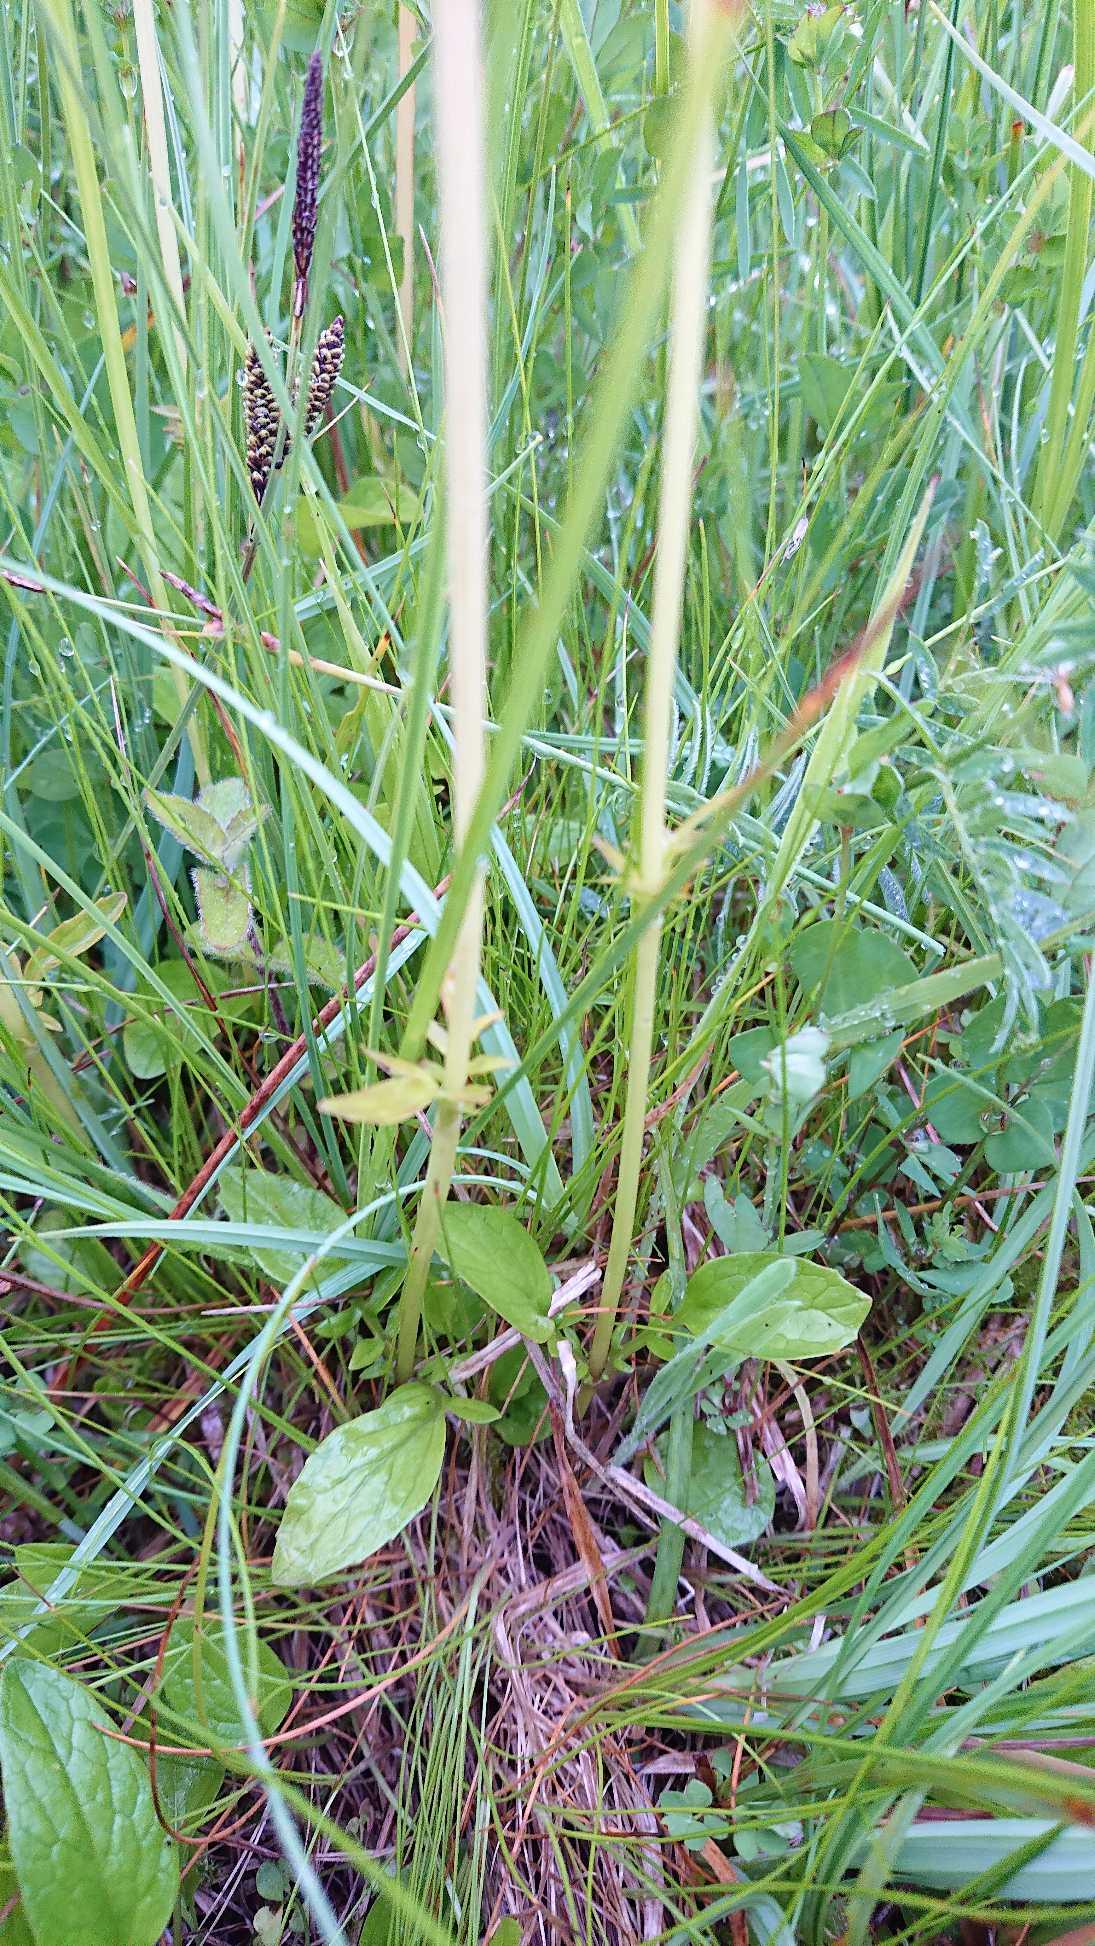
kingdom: Plantae
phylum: Tracheophyta
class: Magnoliopsida
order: Dipsacales
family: Caprifoliaceae
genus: Valeriana
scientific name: Valeriana dioica
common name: Tvebo baldrian
